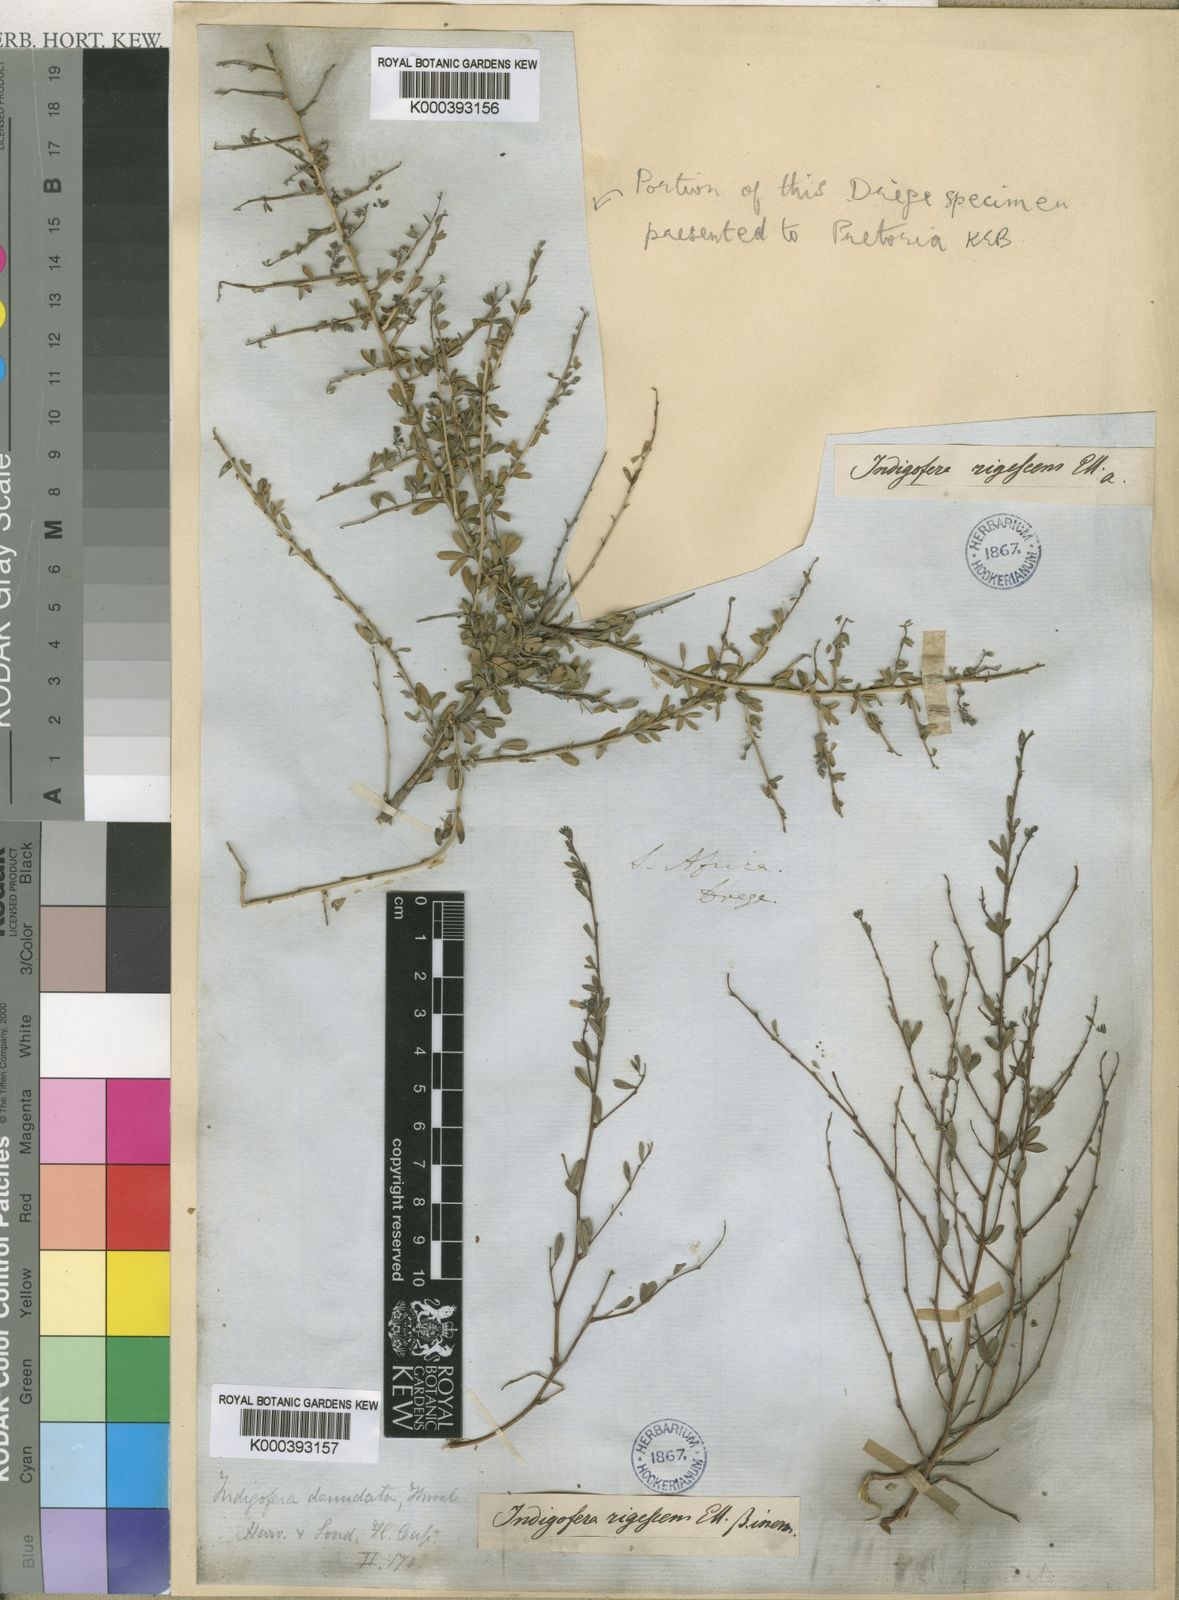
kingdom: Plantae
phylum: Tracheophyta
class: Magnoliopsida
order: Fabales
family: Fabaceae
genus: Indigofera
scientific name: Indigofera
